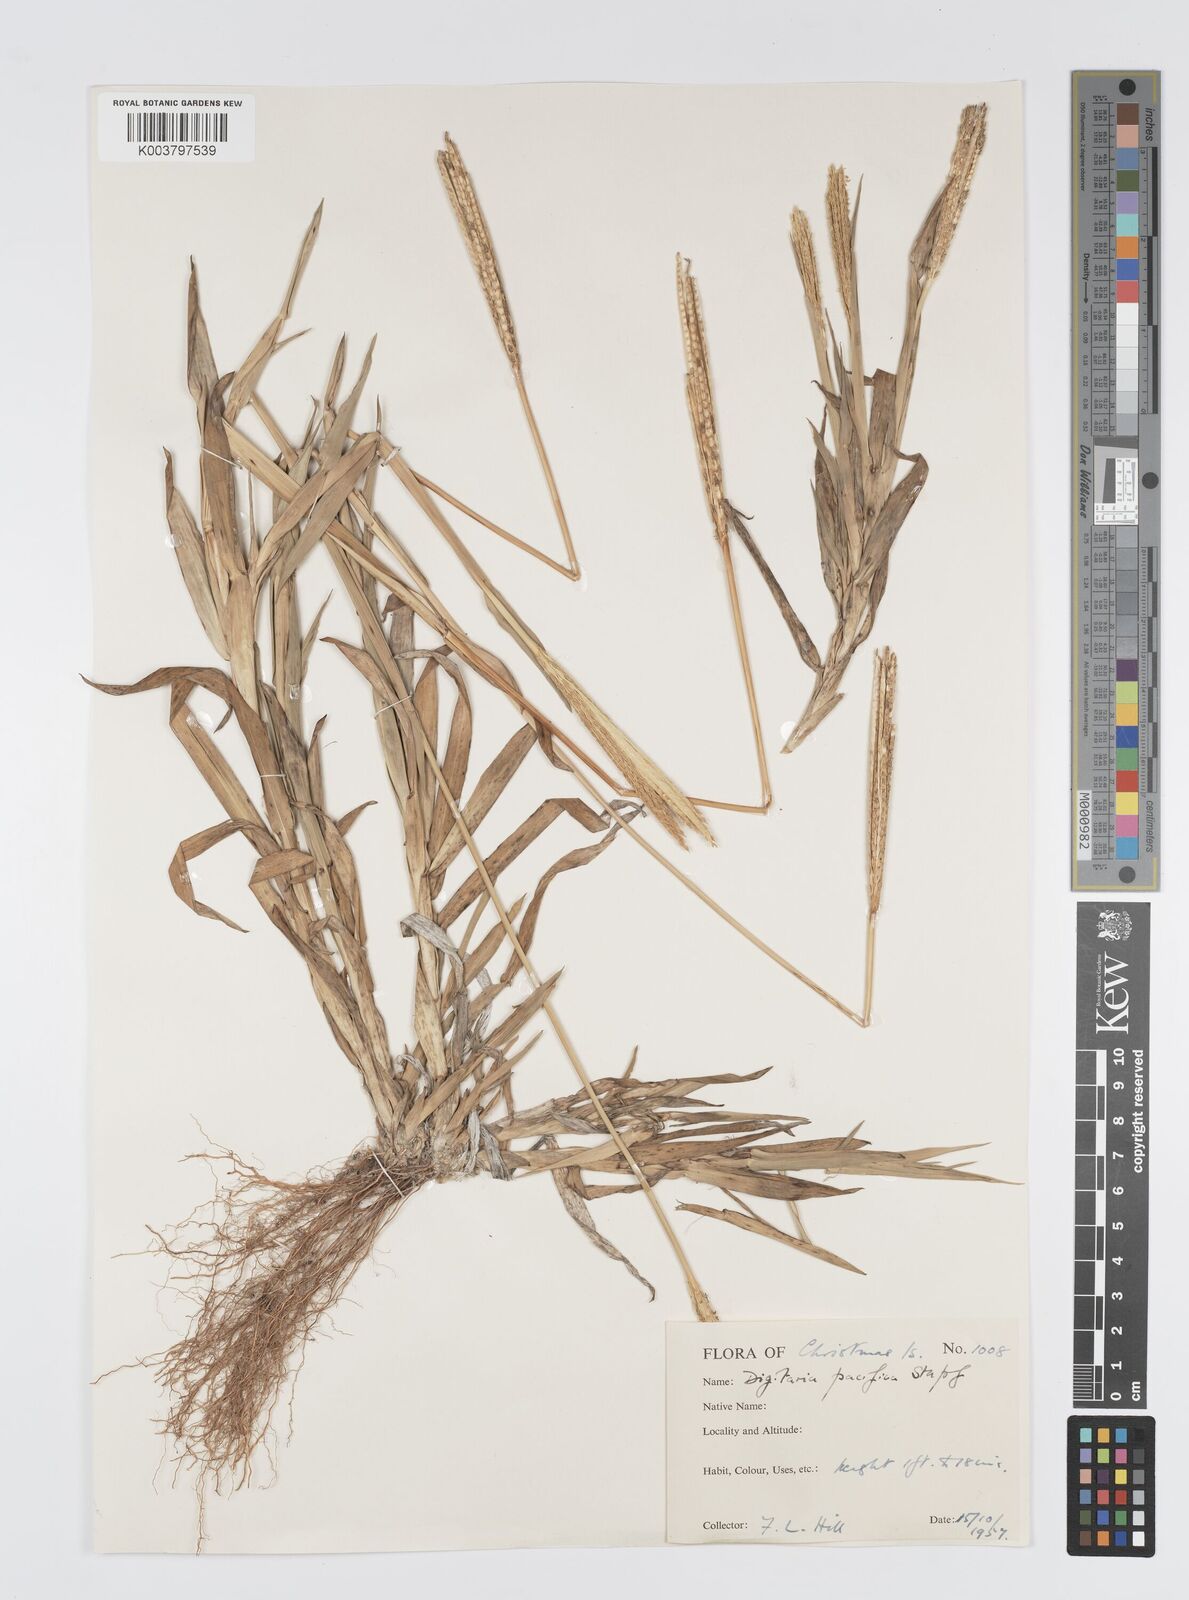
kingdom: Plantae
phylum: Tracheophyta
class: Liliopsida
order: Poales
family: Poaceae
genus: Digitaria
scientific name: Digitaria stenotaphrodes
